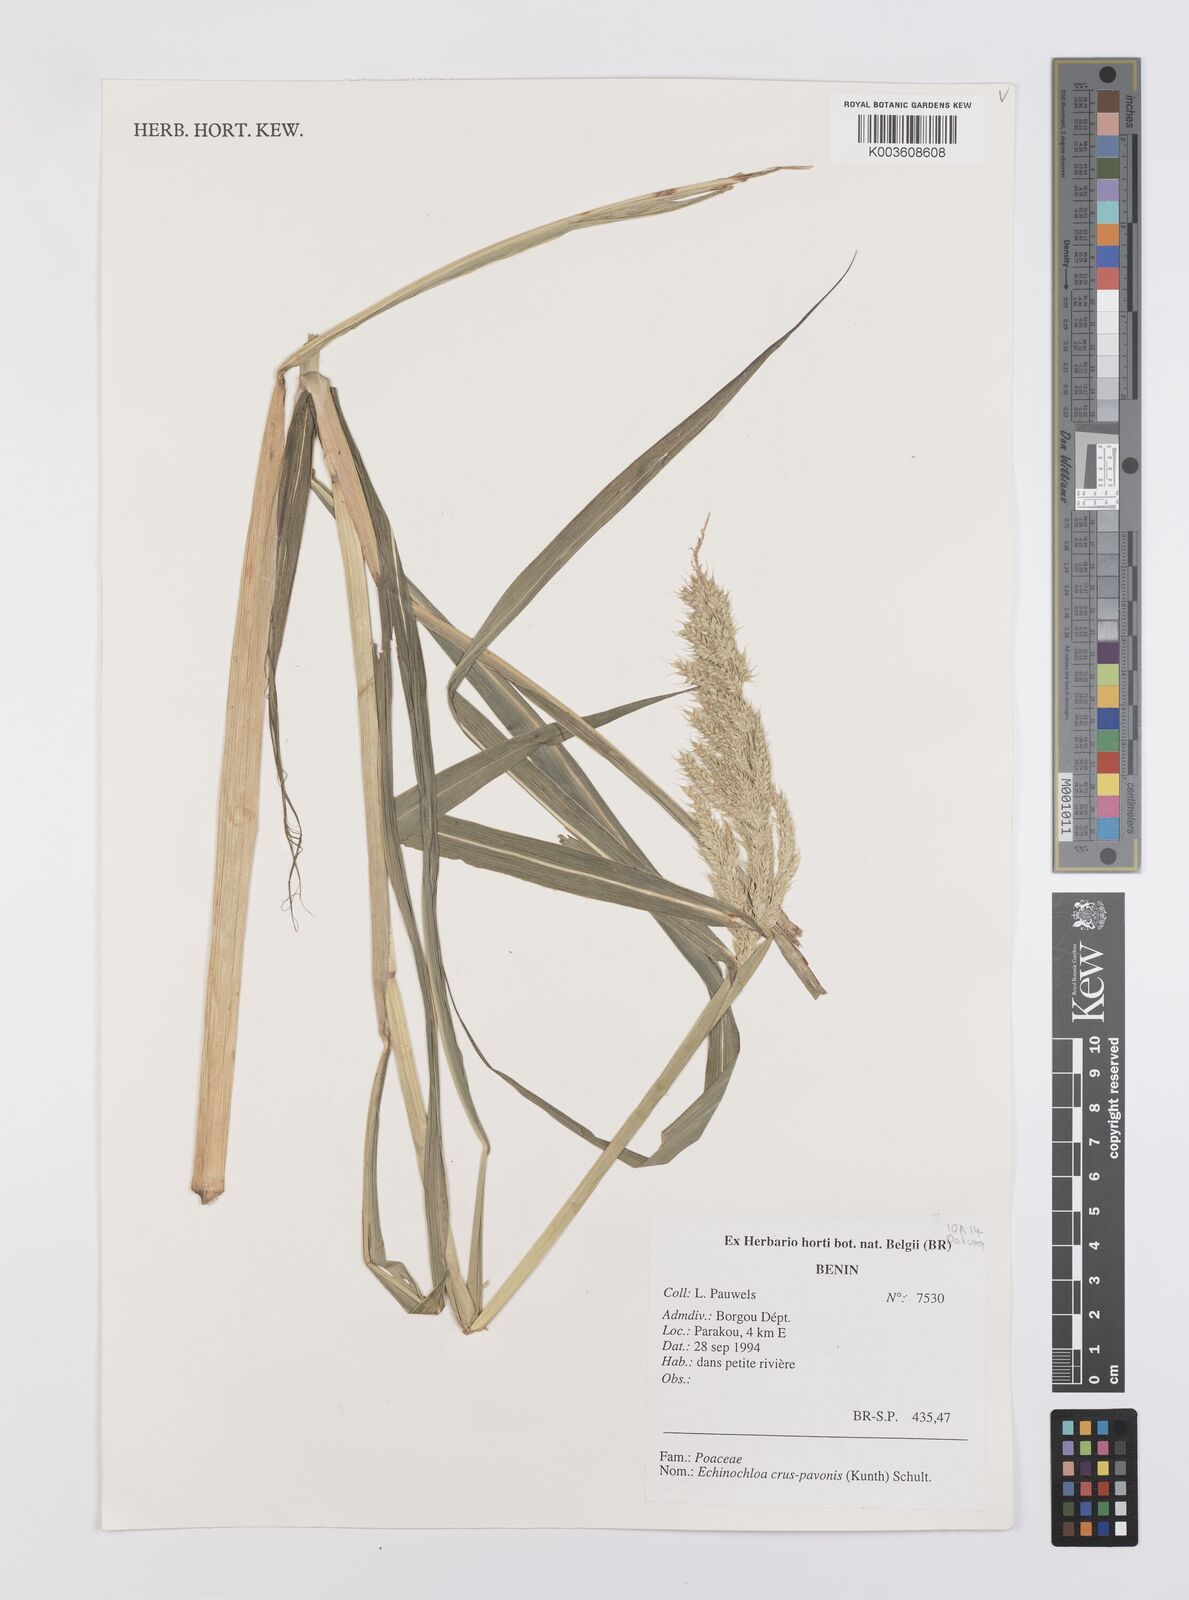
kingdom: Plantae
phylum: Tracheophyta
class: Liliopsida
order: Poales
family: Poaceae
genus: Echinochloa
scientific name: Echinochloa crus-pavonis
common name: Gulf cockspur grass
